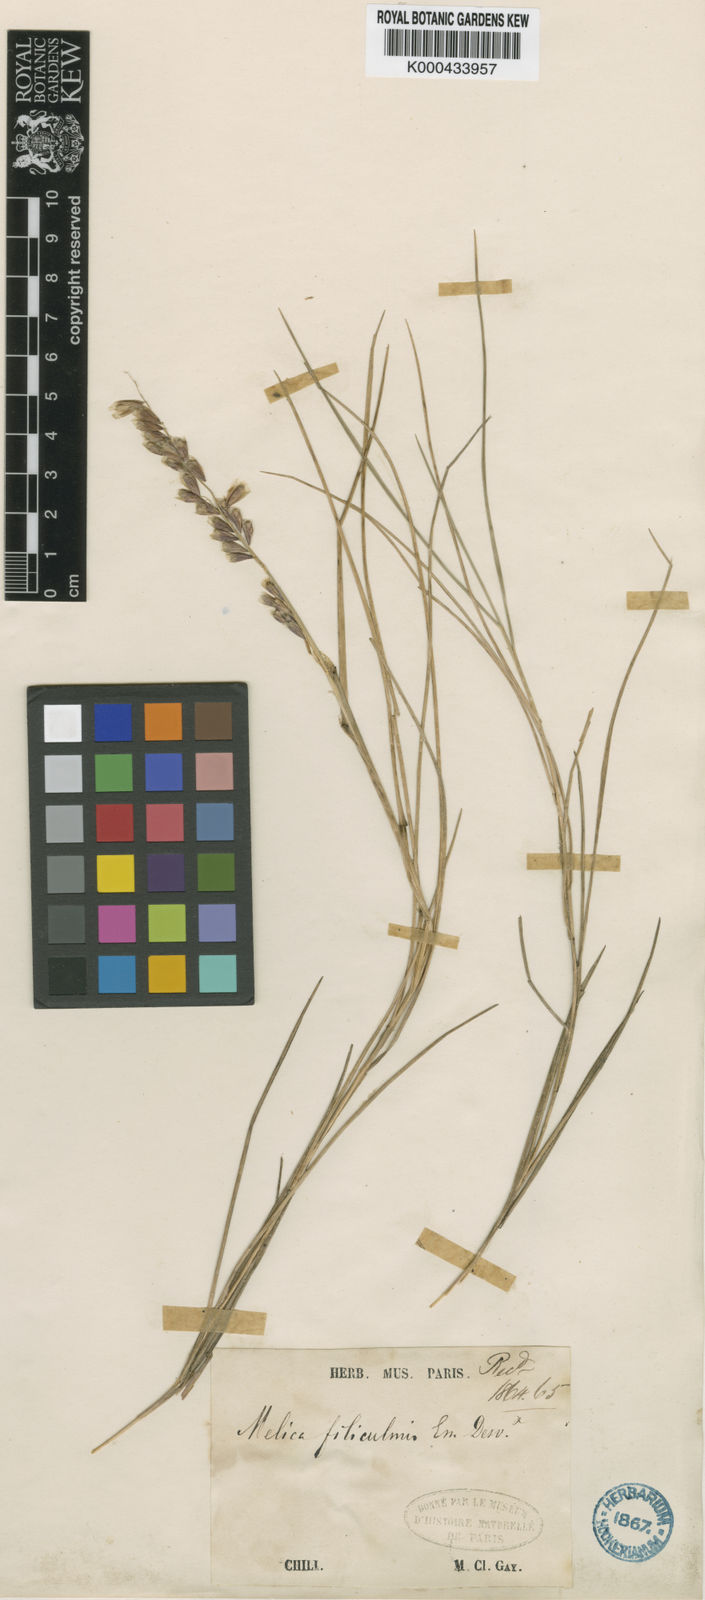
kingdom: Plantae
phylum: Tracheophyta
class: Liliopsida
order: Poales
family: Poaceae
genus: Melica
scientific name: Melica violacea
